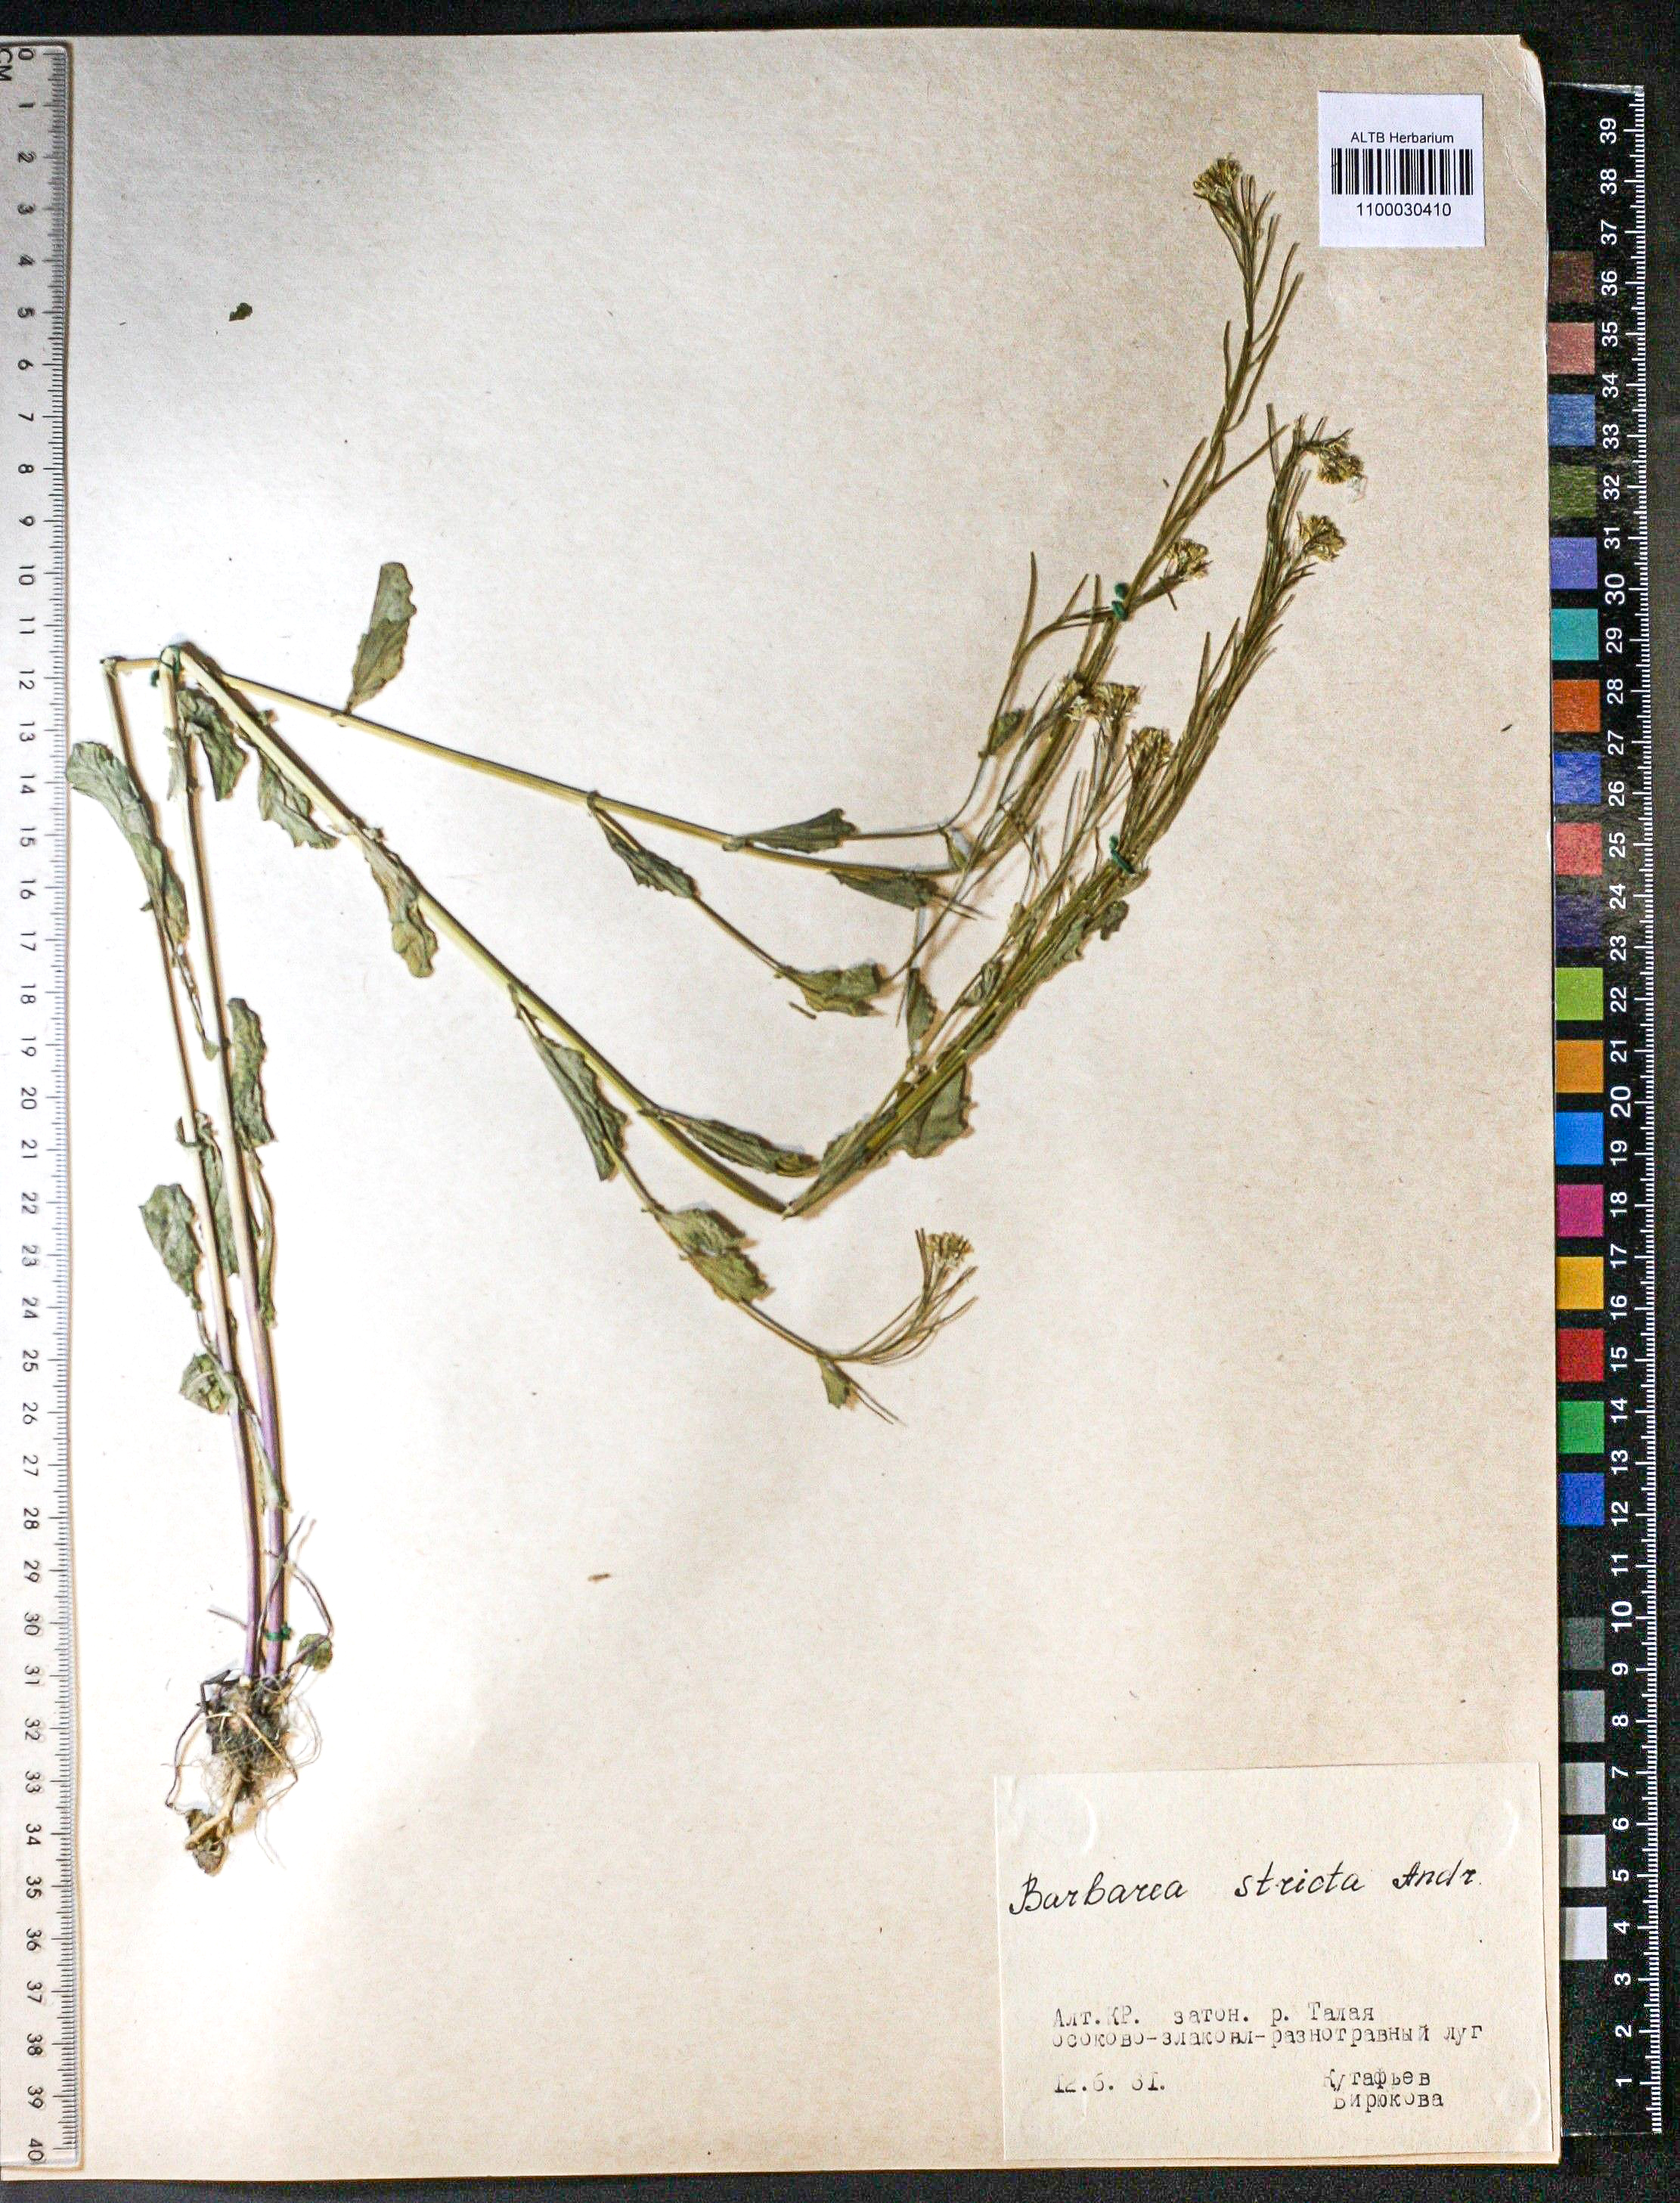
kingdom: Plantae
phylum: Tracheophyta
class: Magnoliopsida
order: Brassicales
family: Brassicaceae
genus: Barbarea
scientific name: Barbarea vulgaris
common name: Cressy-greens
